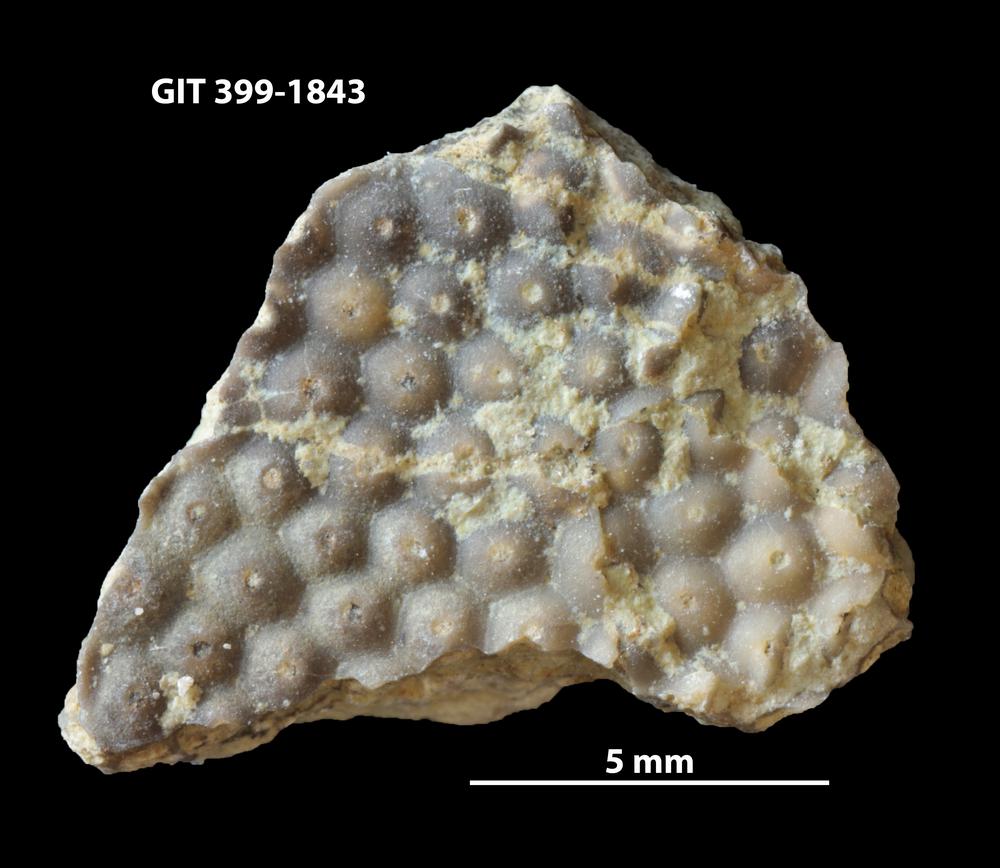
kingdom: Plantae
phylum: Chlorophyta
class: Ulvophyceae
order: Cyclocrinales
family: Cyclocrinaceae
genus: Mastopora
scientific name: Mastopora concava
